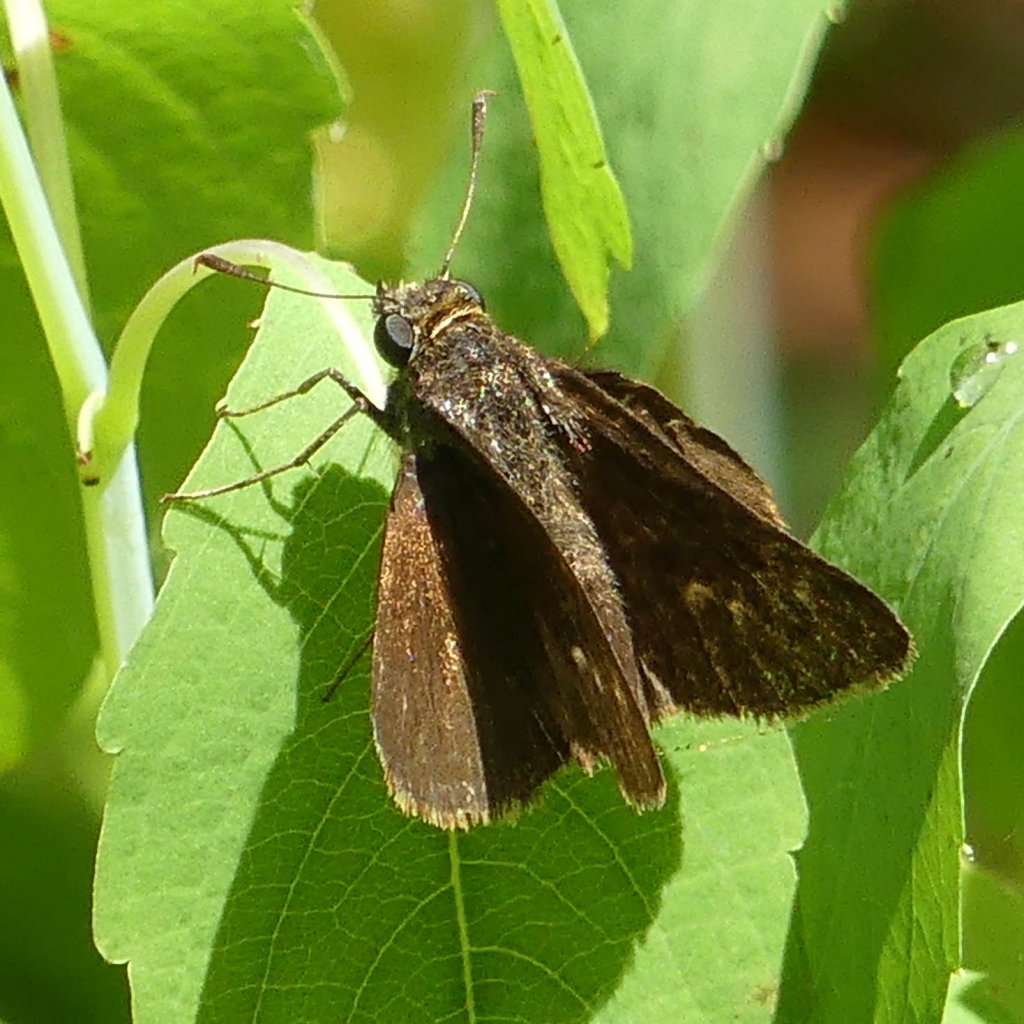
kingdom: Animalia
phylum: Arthropoda
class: Insecta
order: Lepidoptera
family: Hesperiidae
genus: Euphyes
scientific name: Euphyes vestris
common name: Dun Skipper
